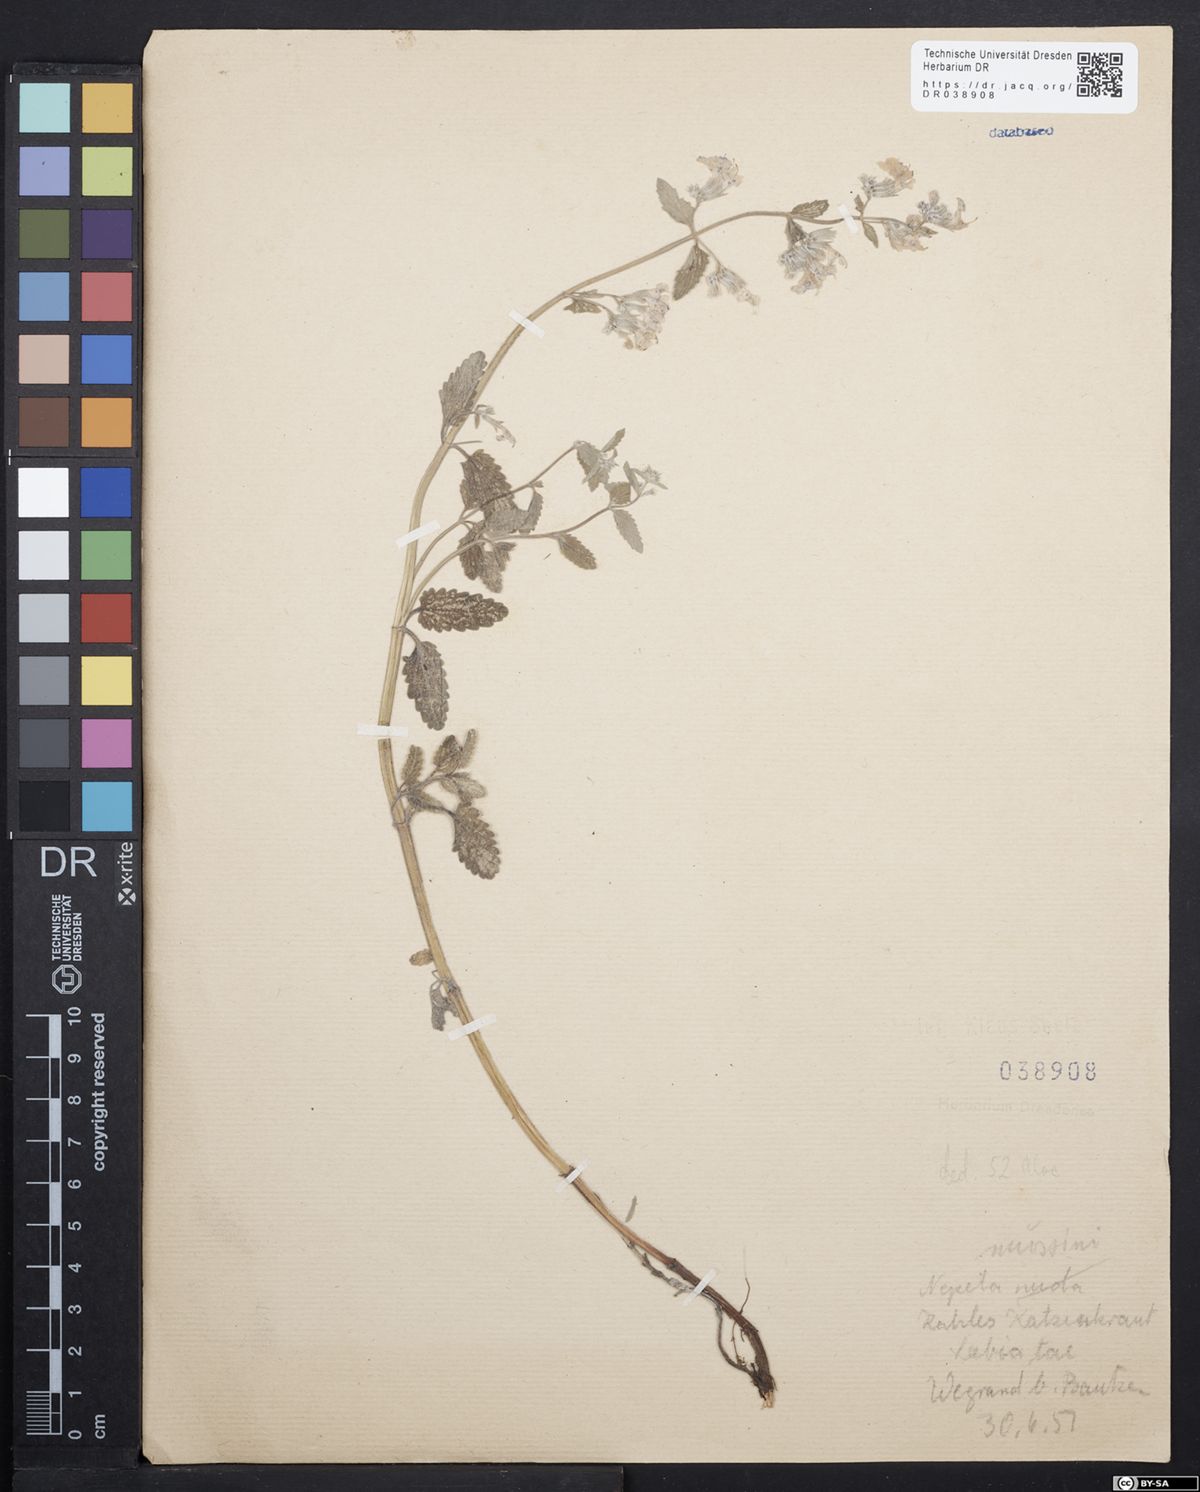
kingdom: Plantae
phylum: Tracheophyta
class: Magnoliopsida
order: Lamiales
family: Lamiaceae
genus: Nepeta
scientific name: Nepeta racemosa
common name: Raceme catnip
